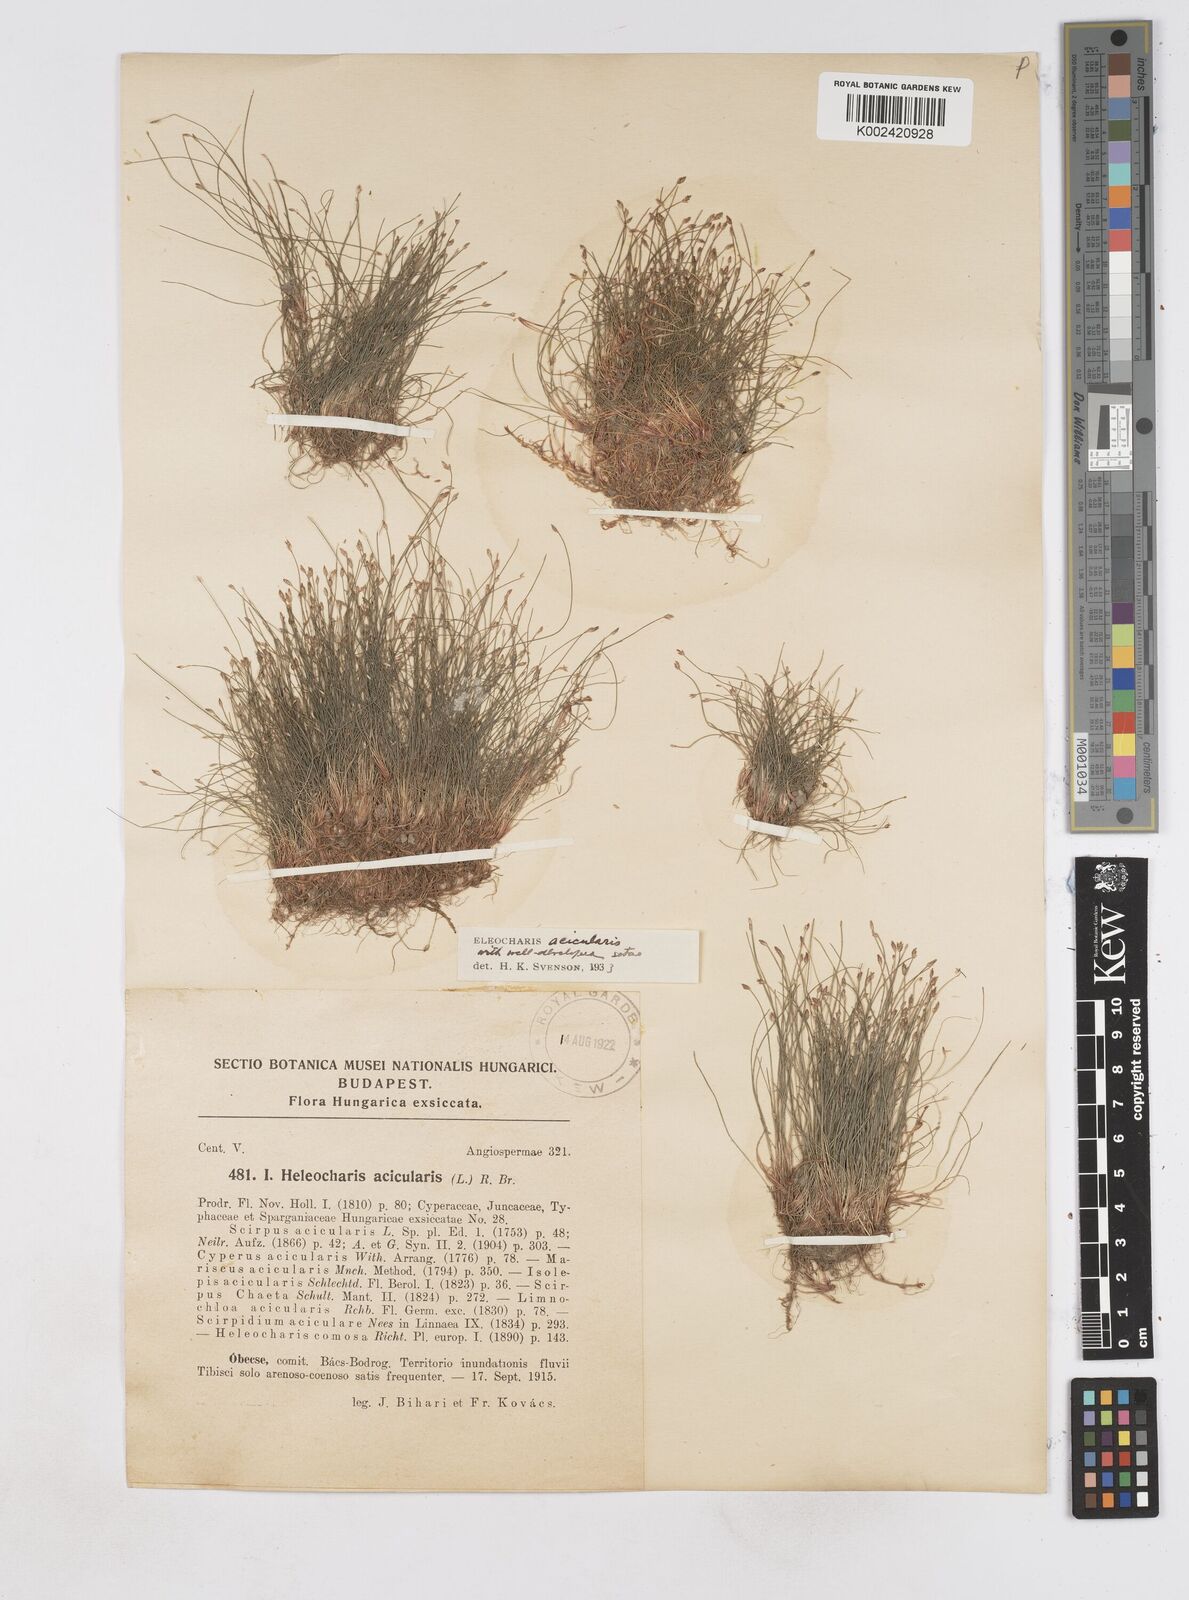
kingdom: Plantae
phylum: Tracheophyta
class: Liliopsida
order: Poales
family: Cyperaceae
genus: Eleocharis
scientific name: Eleocharis acicularis
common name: Needle spike-rush
